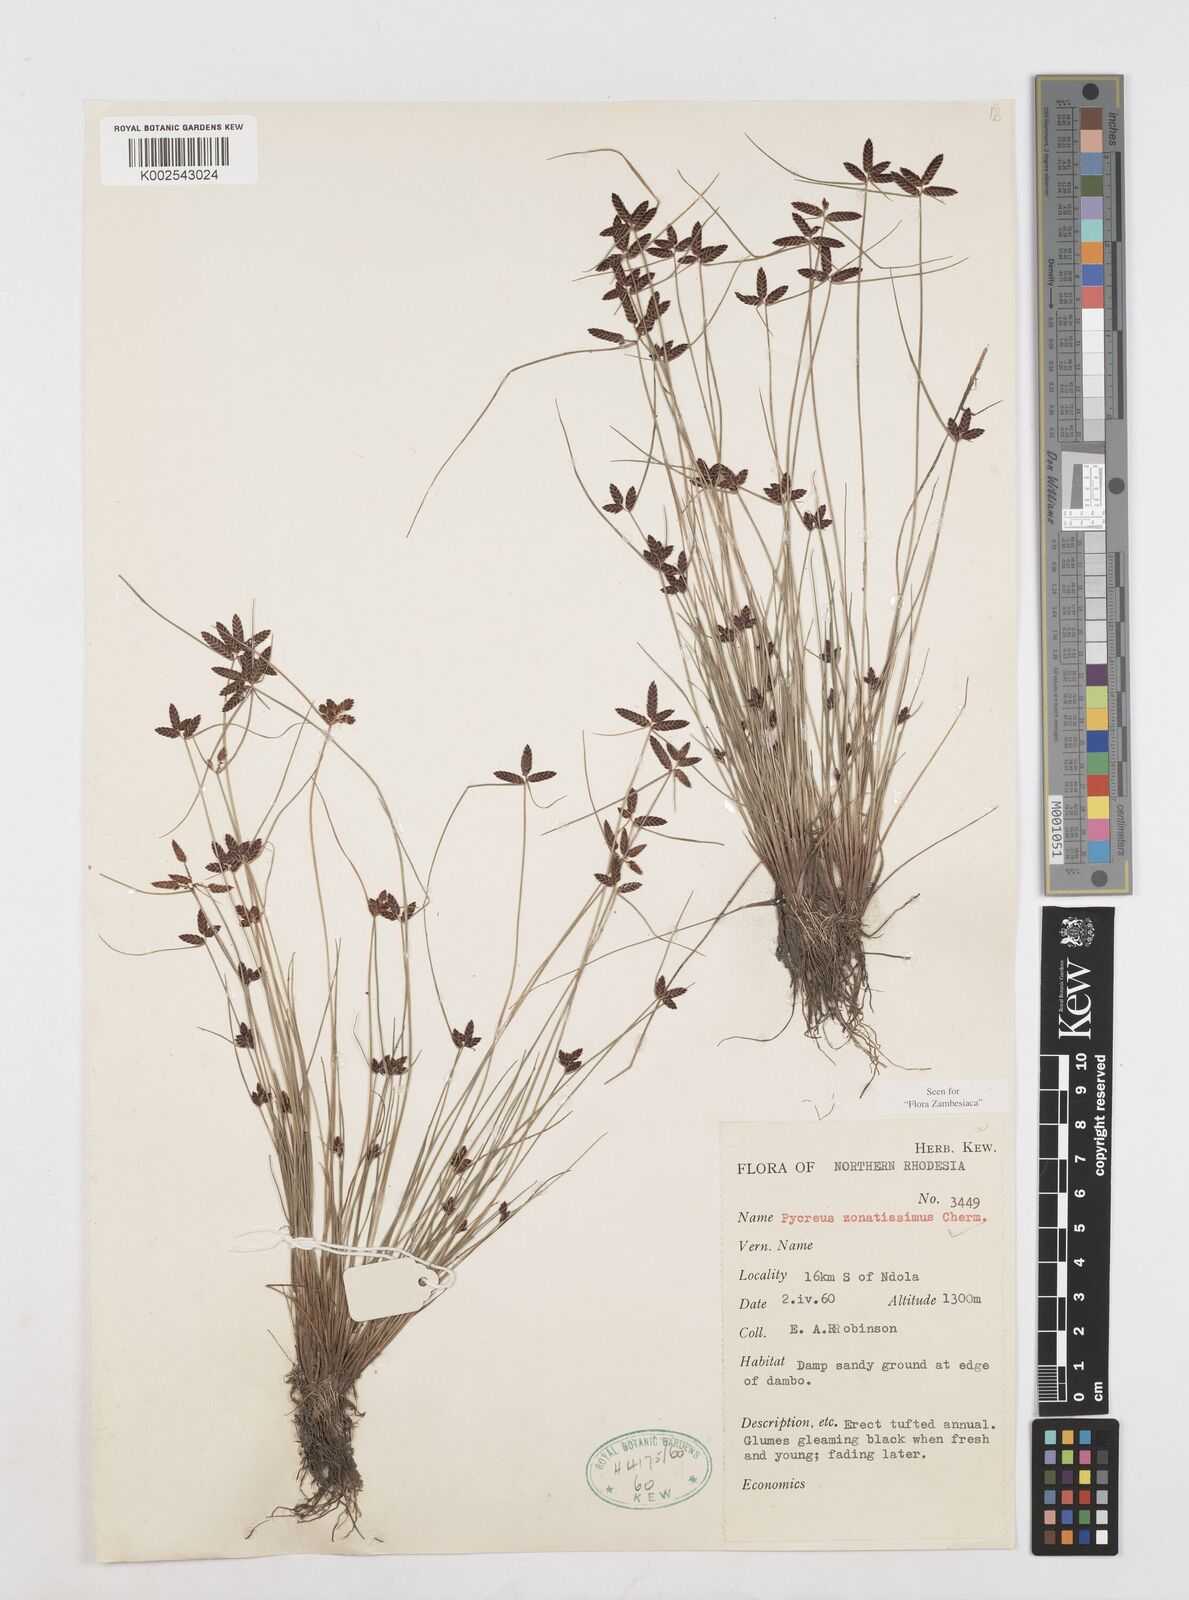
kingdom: Plantae
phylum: Tracheophyta
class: Liliopsida
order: Poales
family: Cyperaceae
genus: Cyperus
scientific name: Cyperus zonatissimus
